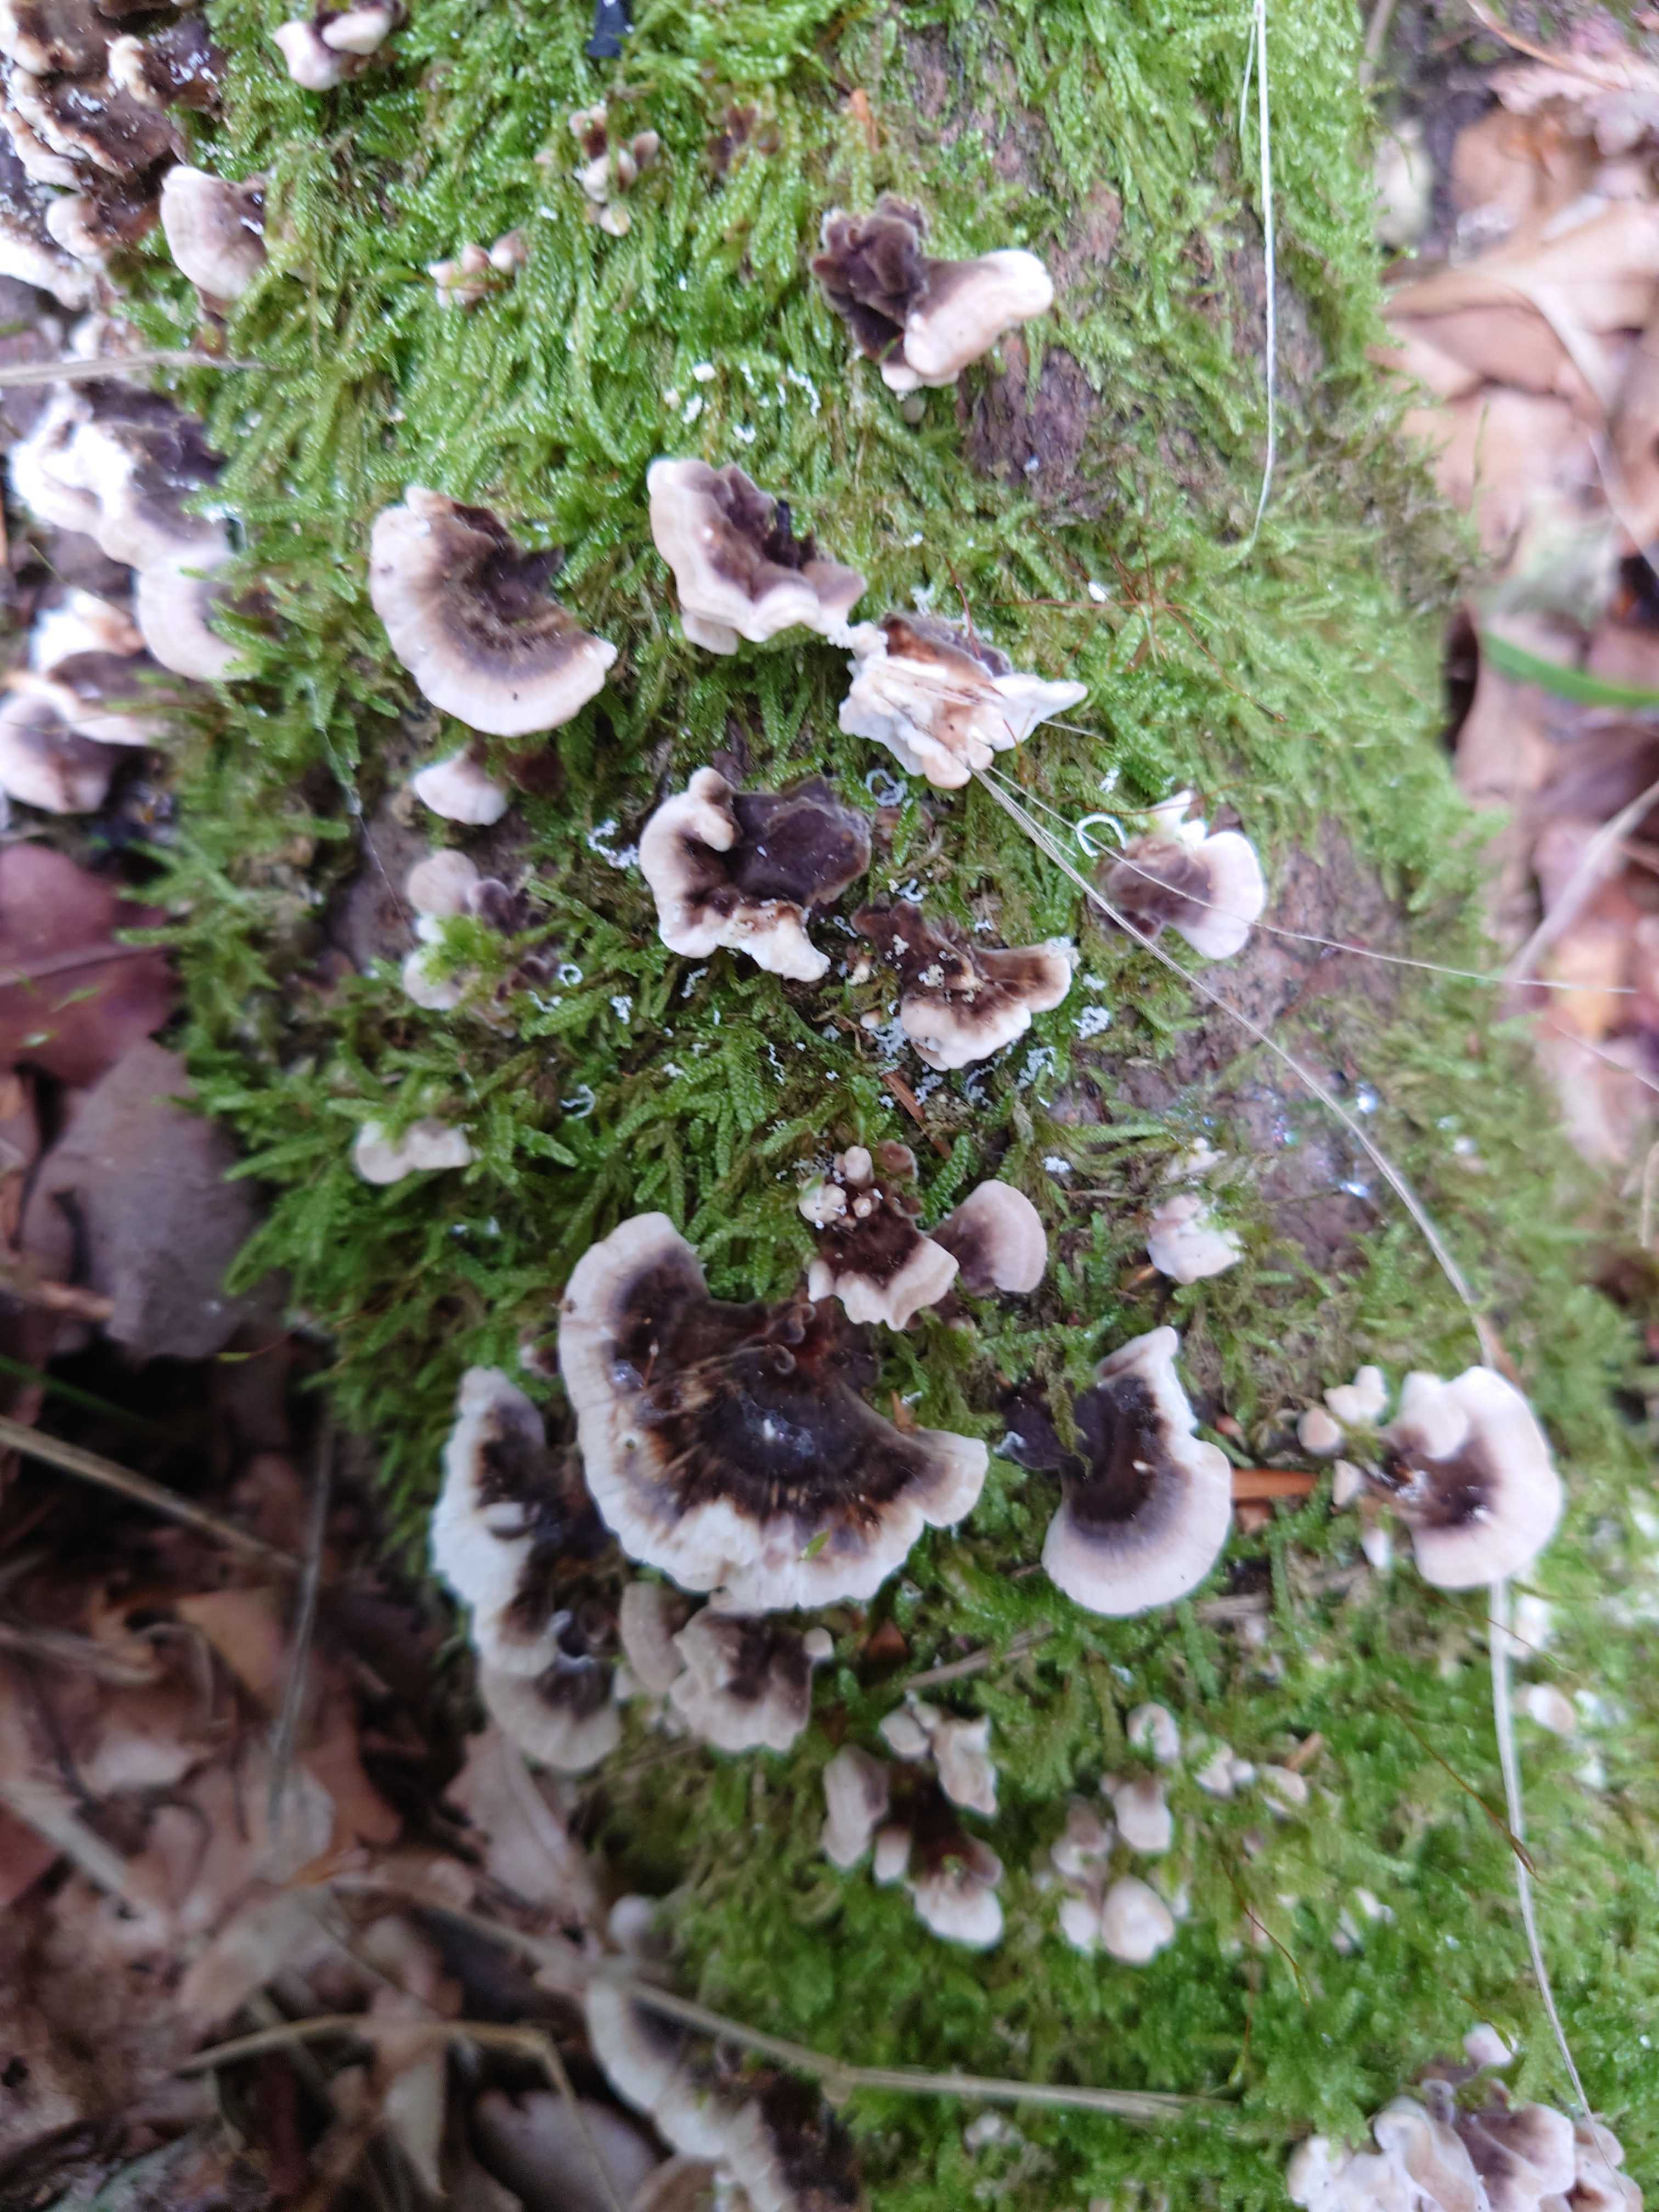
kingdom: Fungi
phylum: Basidiomycota
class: Agaricomycetes
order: Polyporales
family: Polyporaceae
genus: Trametes
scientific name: Trametes versicolor
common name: broget læderporesvamp
